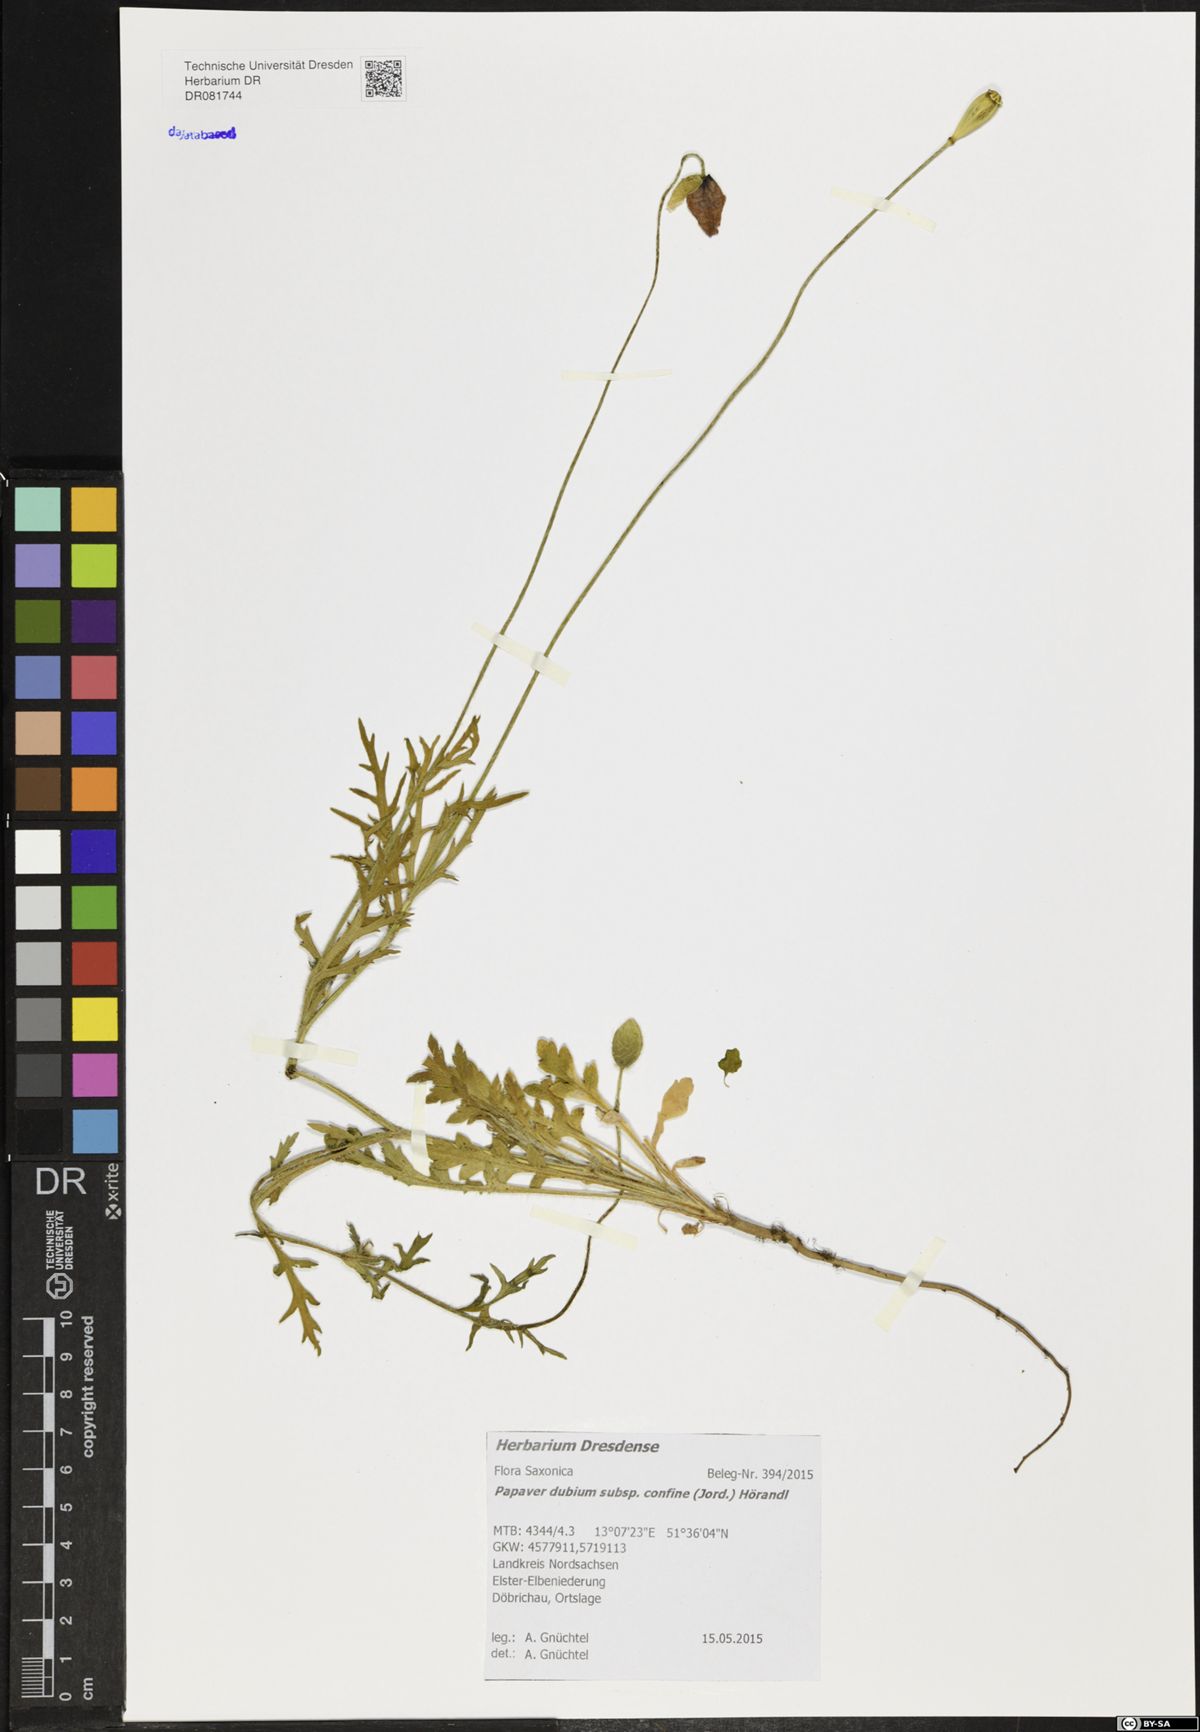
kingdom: Plantae
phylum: Tracheophyta
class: Magnoliopsida
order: Ranunculales
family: Papaveraceae
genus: Papaver
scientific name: Papaver confine
